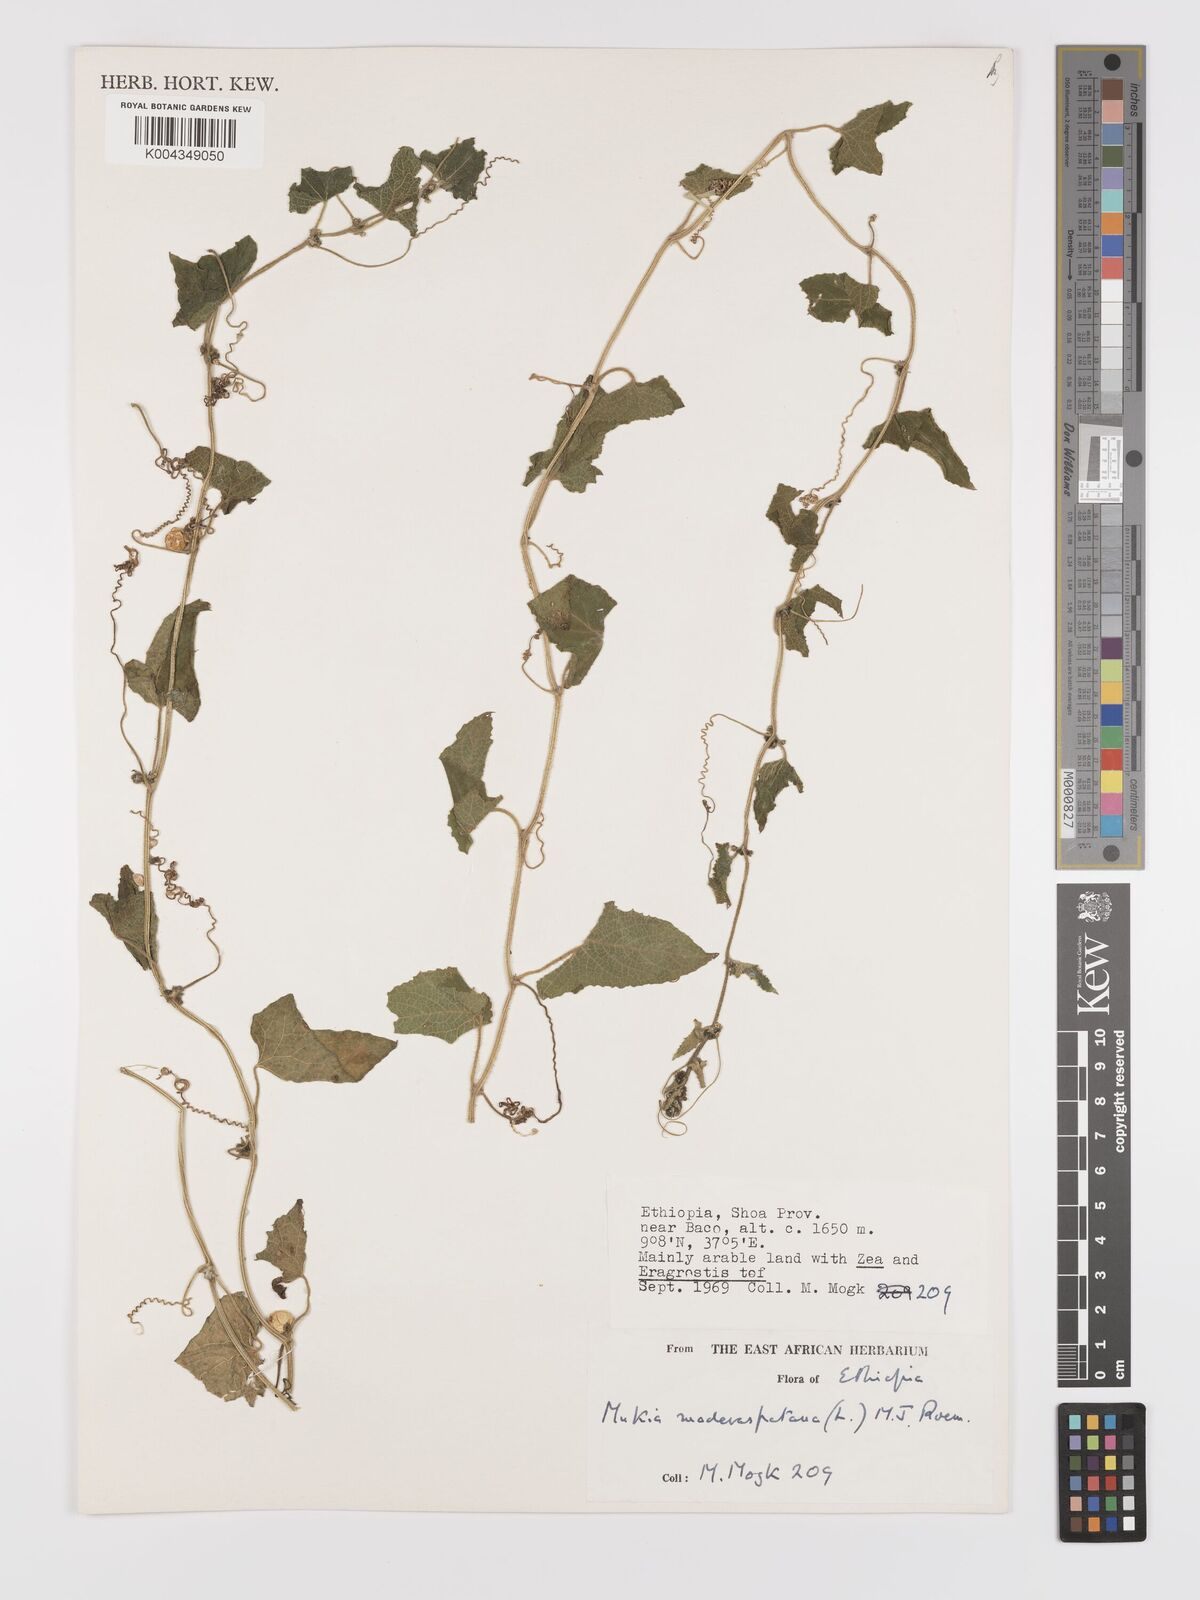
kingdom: Plantae
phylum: Tracheophyta
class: Magnoliopsida
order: Cucurbitales
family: Cucurbitaceae
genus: Cucumis
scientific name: Cucumis maderaspatanus
